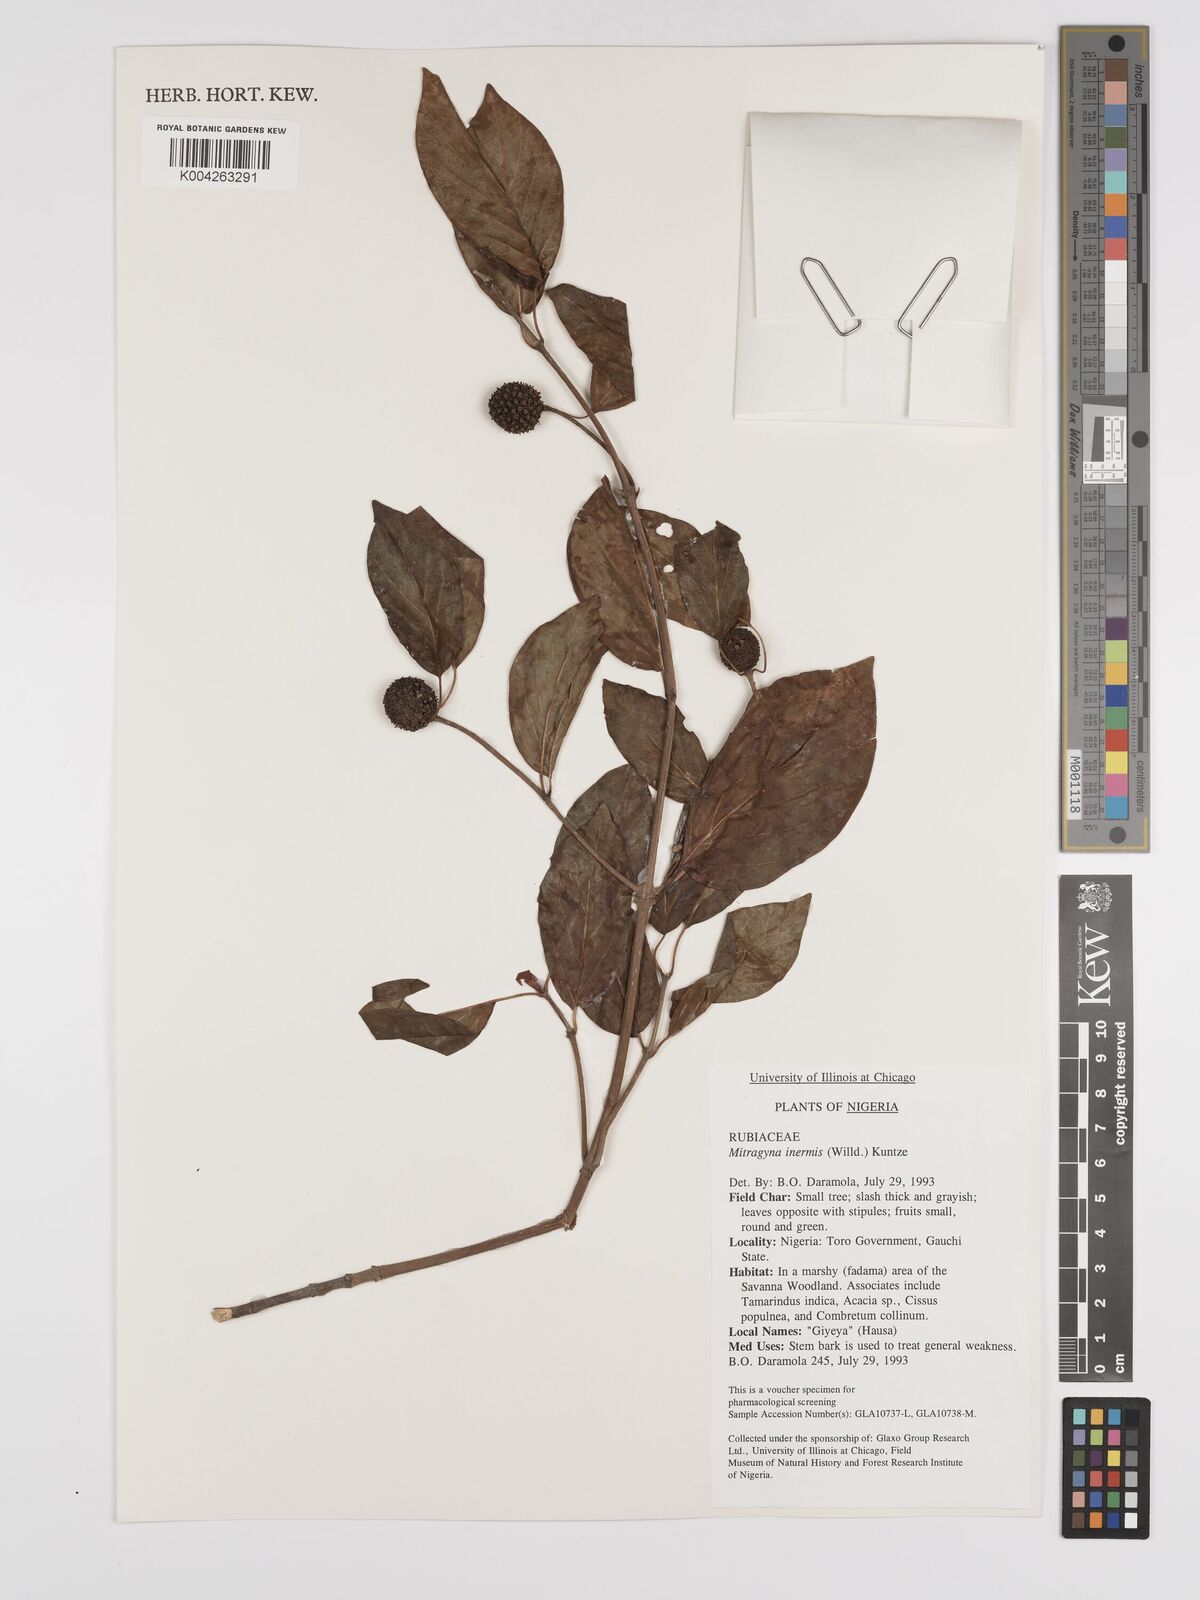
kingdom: Plantae
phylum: Tracheophyta
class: Magnoliopsida
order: Gentianales
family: Rubiaceae
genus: Mitragyna
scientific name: Mitragyna inermis
